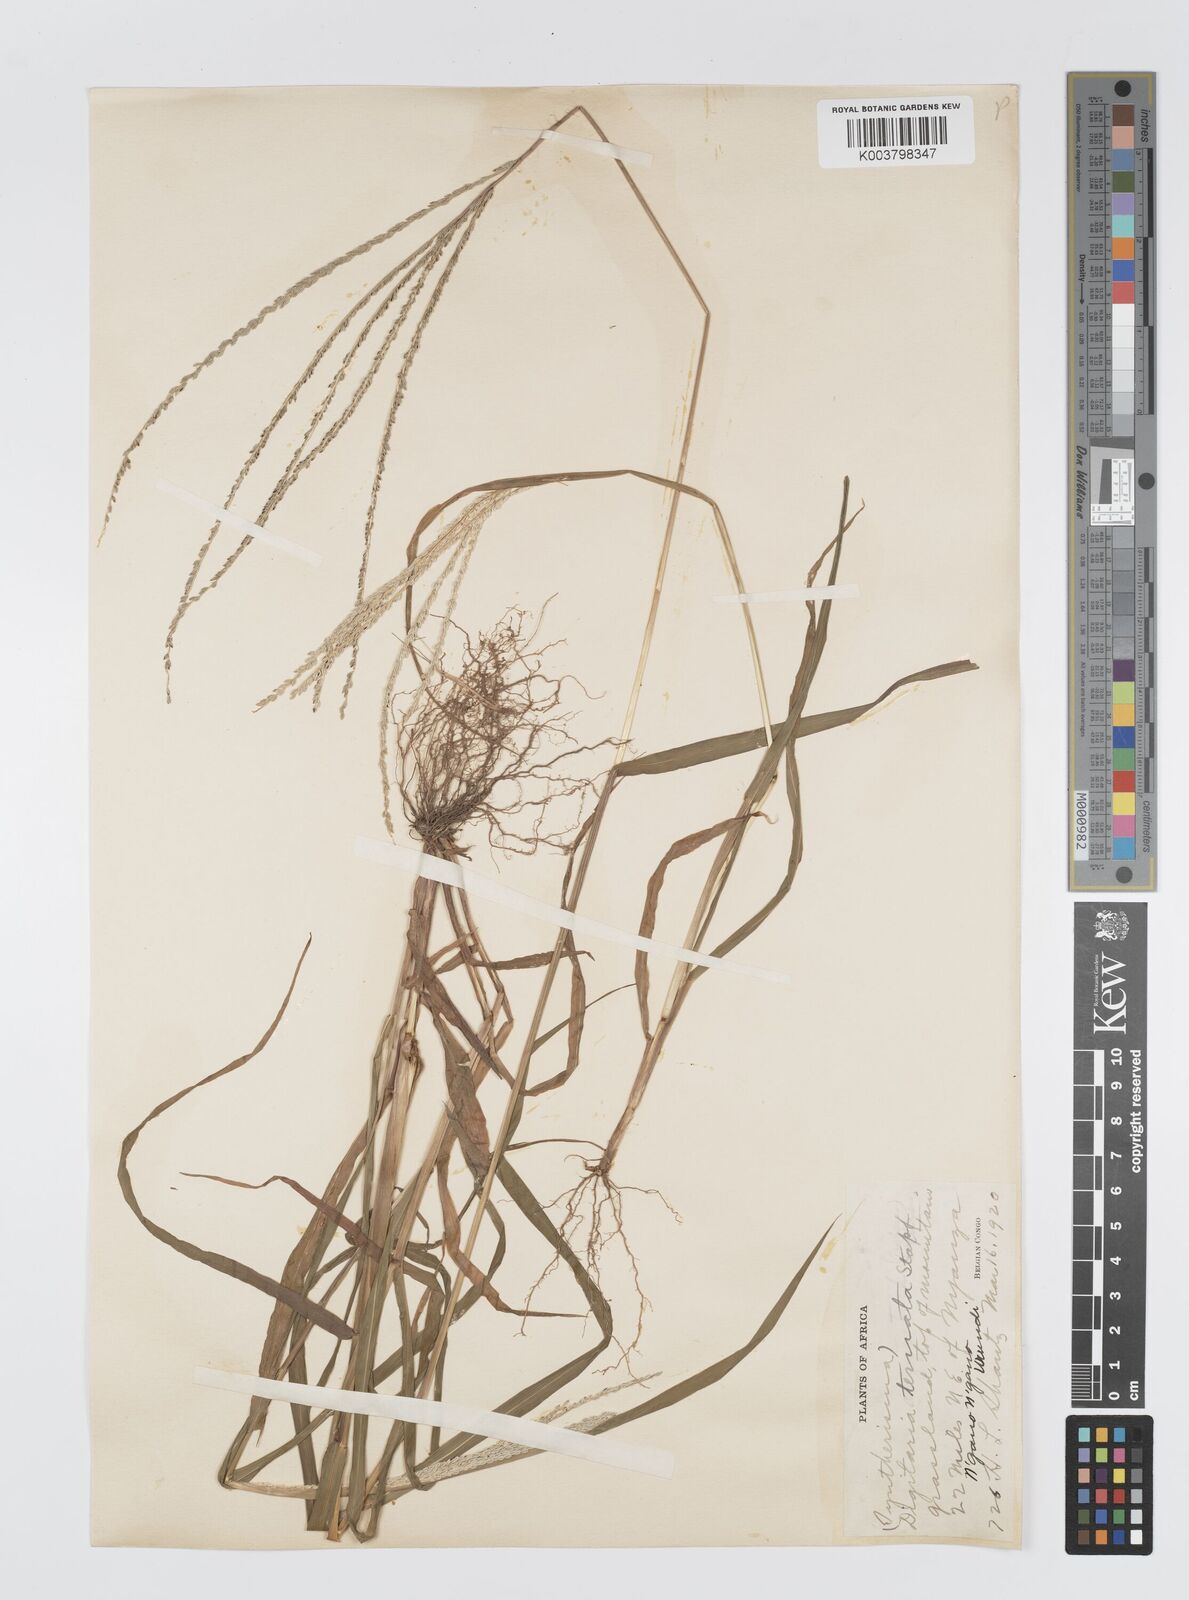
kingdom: Plantae
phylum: Tracheophyta
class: Liliopsida
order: Poales
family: Poaceae
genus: Digitaria
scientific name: Digitaria ternata
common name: Blackseed crabgrass
